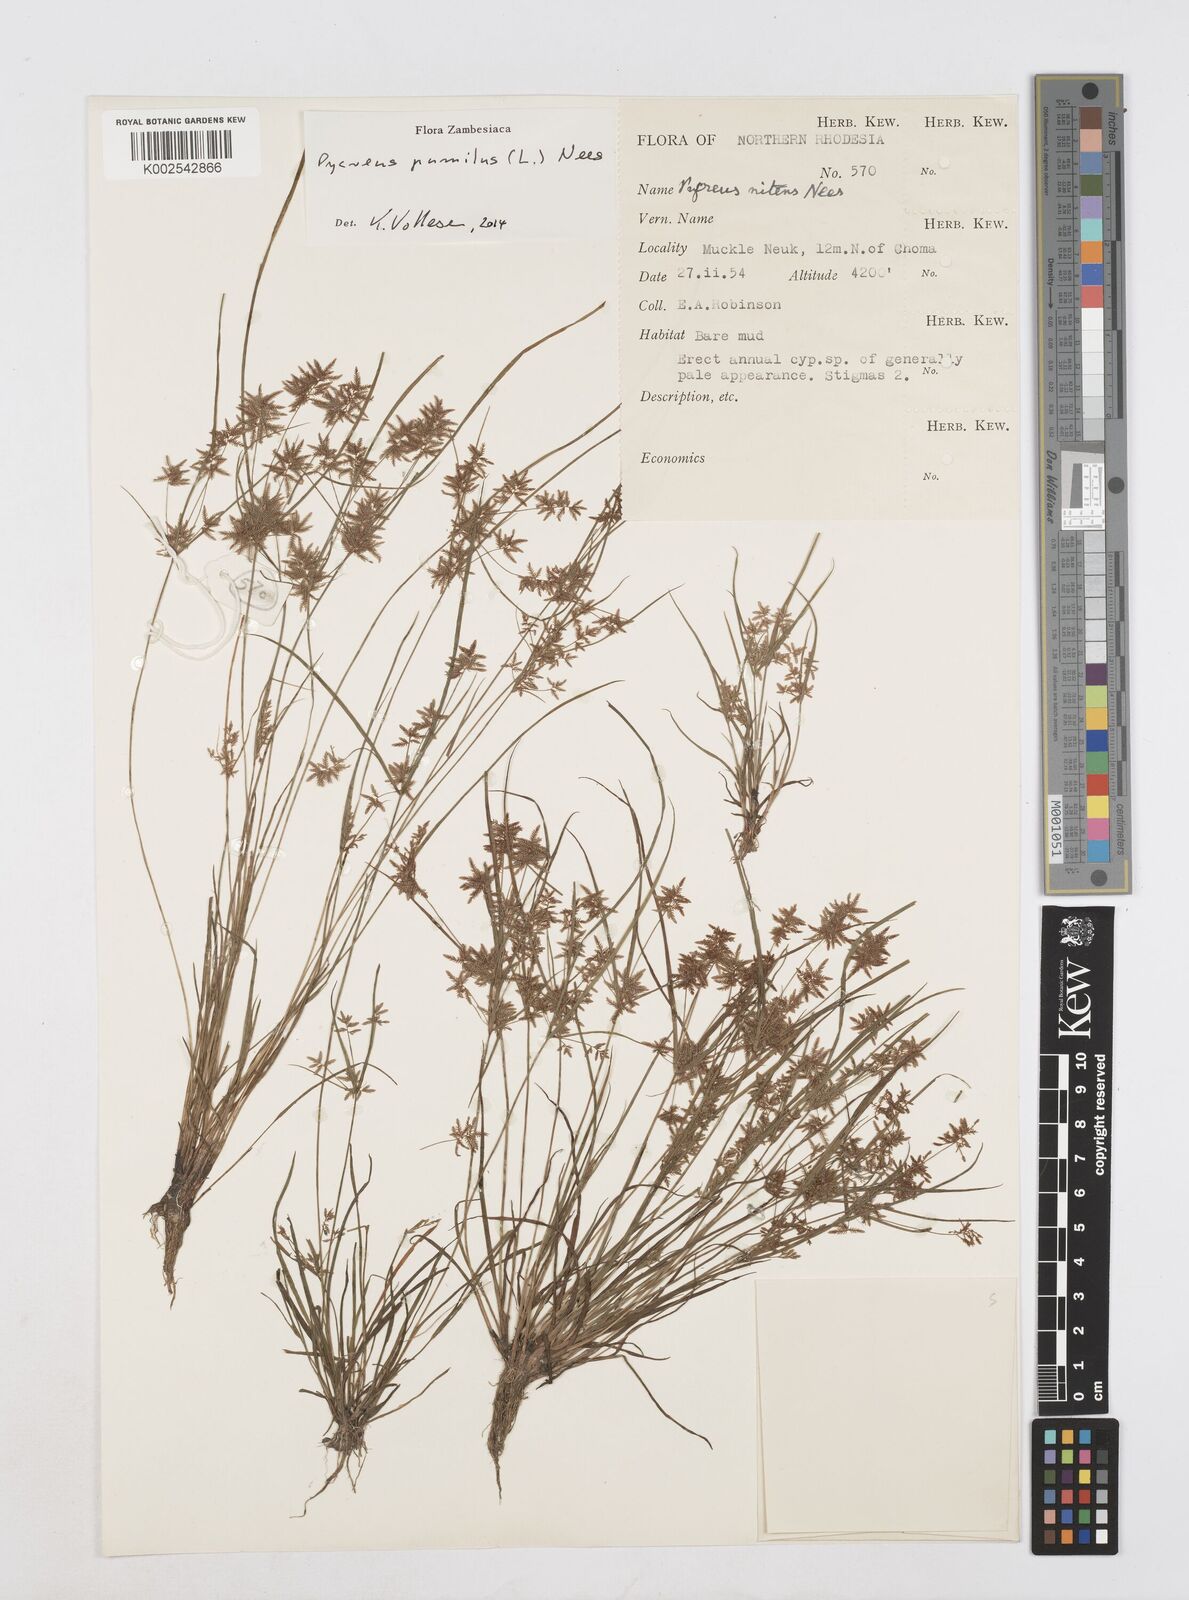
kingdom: Plantae
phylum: Tracheophyta
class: Liliopsida
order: Poales
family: Cyperaceae
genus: Cyperus
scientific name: Cyperus pumilus
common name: Low flatsedge
